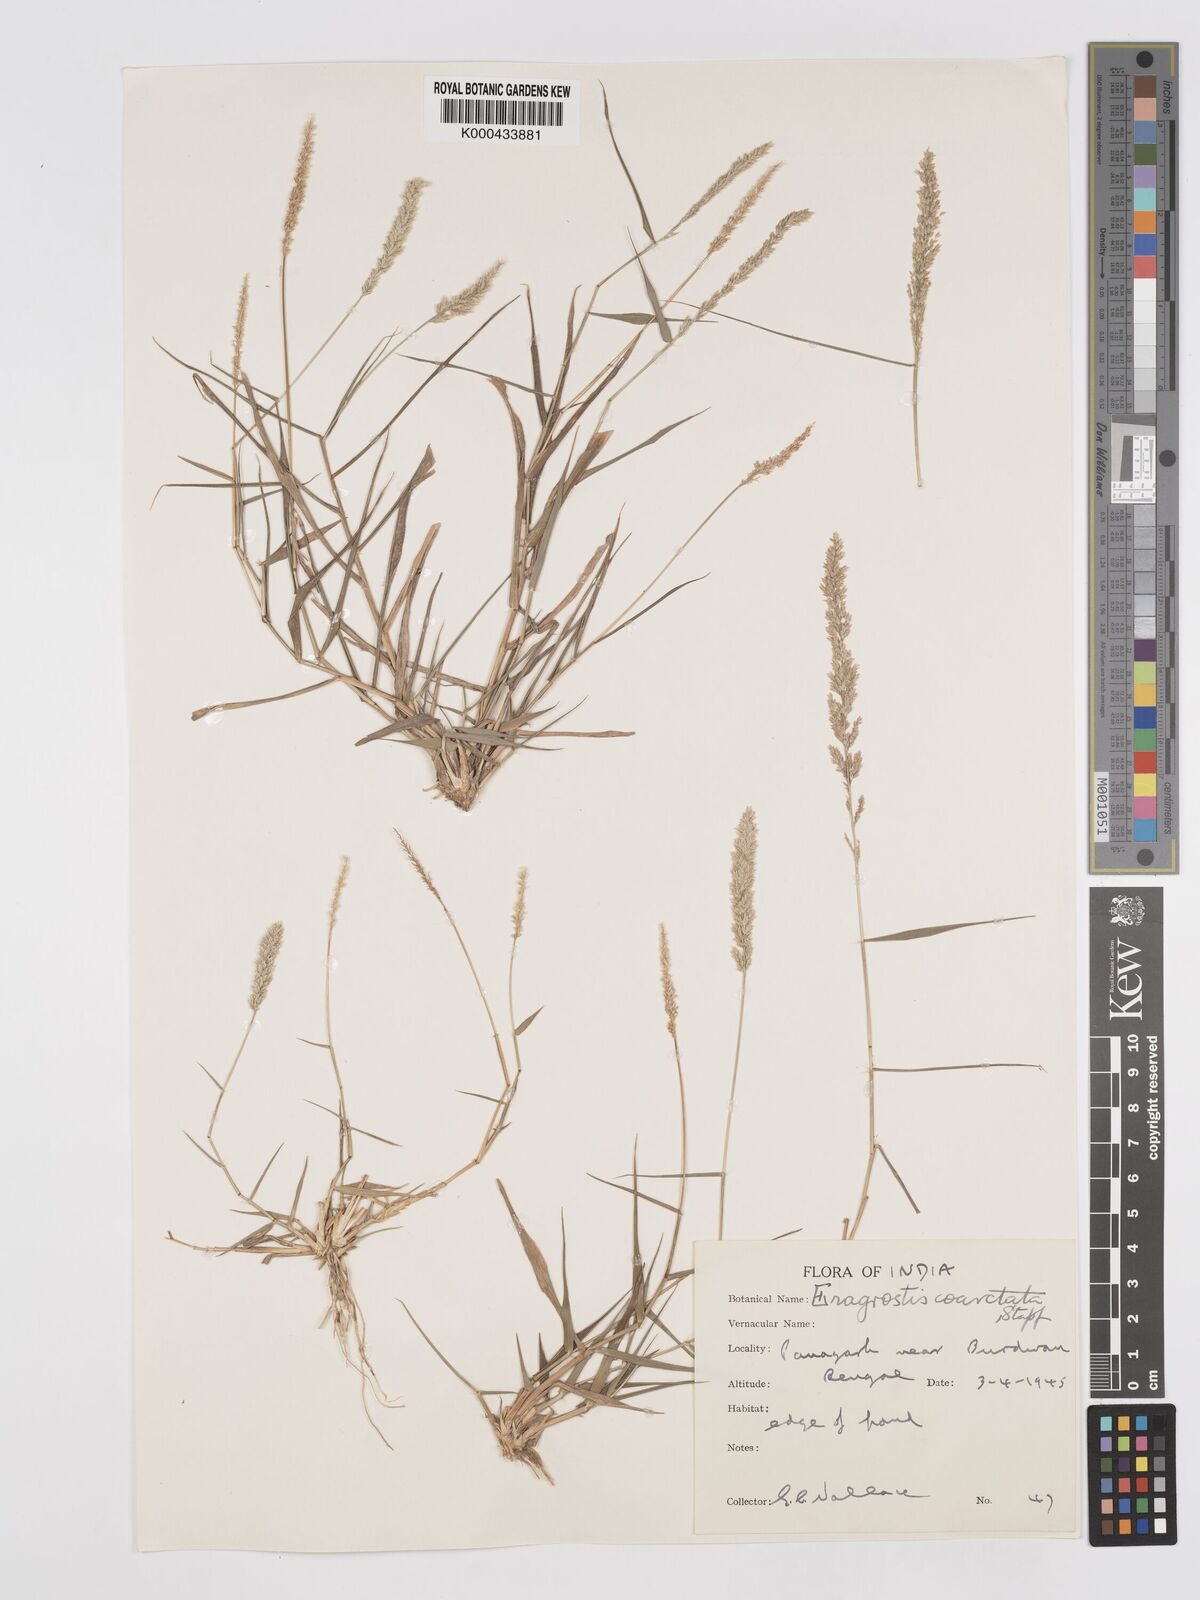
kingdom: Plantae
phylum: Tracheophyta
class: Liliopsida
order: Poales
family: Poaceae
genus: Eragrostis
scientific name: Eragrostis coarctata
